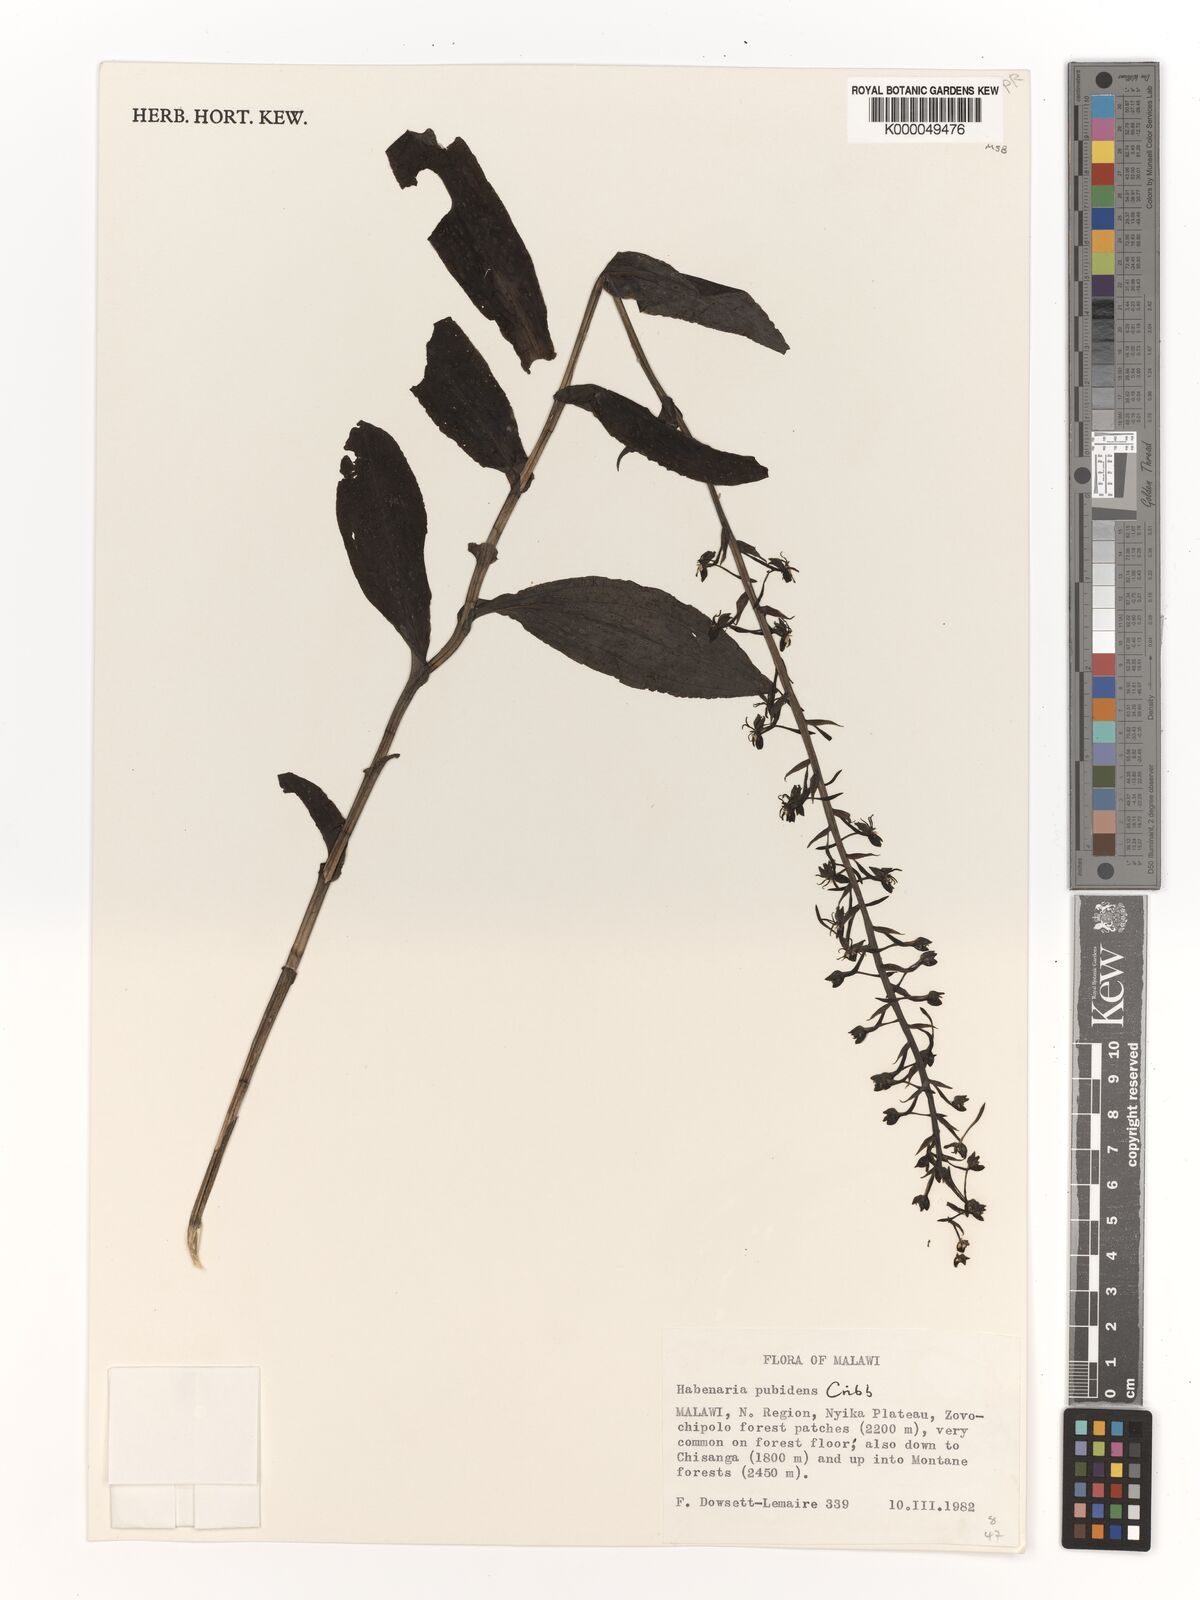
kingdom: Plantae
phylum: Tracheophyta
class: Liliopsida
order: Asparagales
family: Orchidaceae
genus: Habenaria
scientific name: Habenaria pubidens
